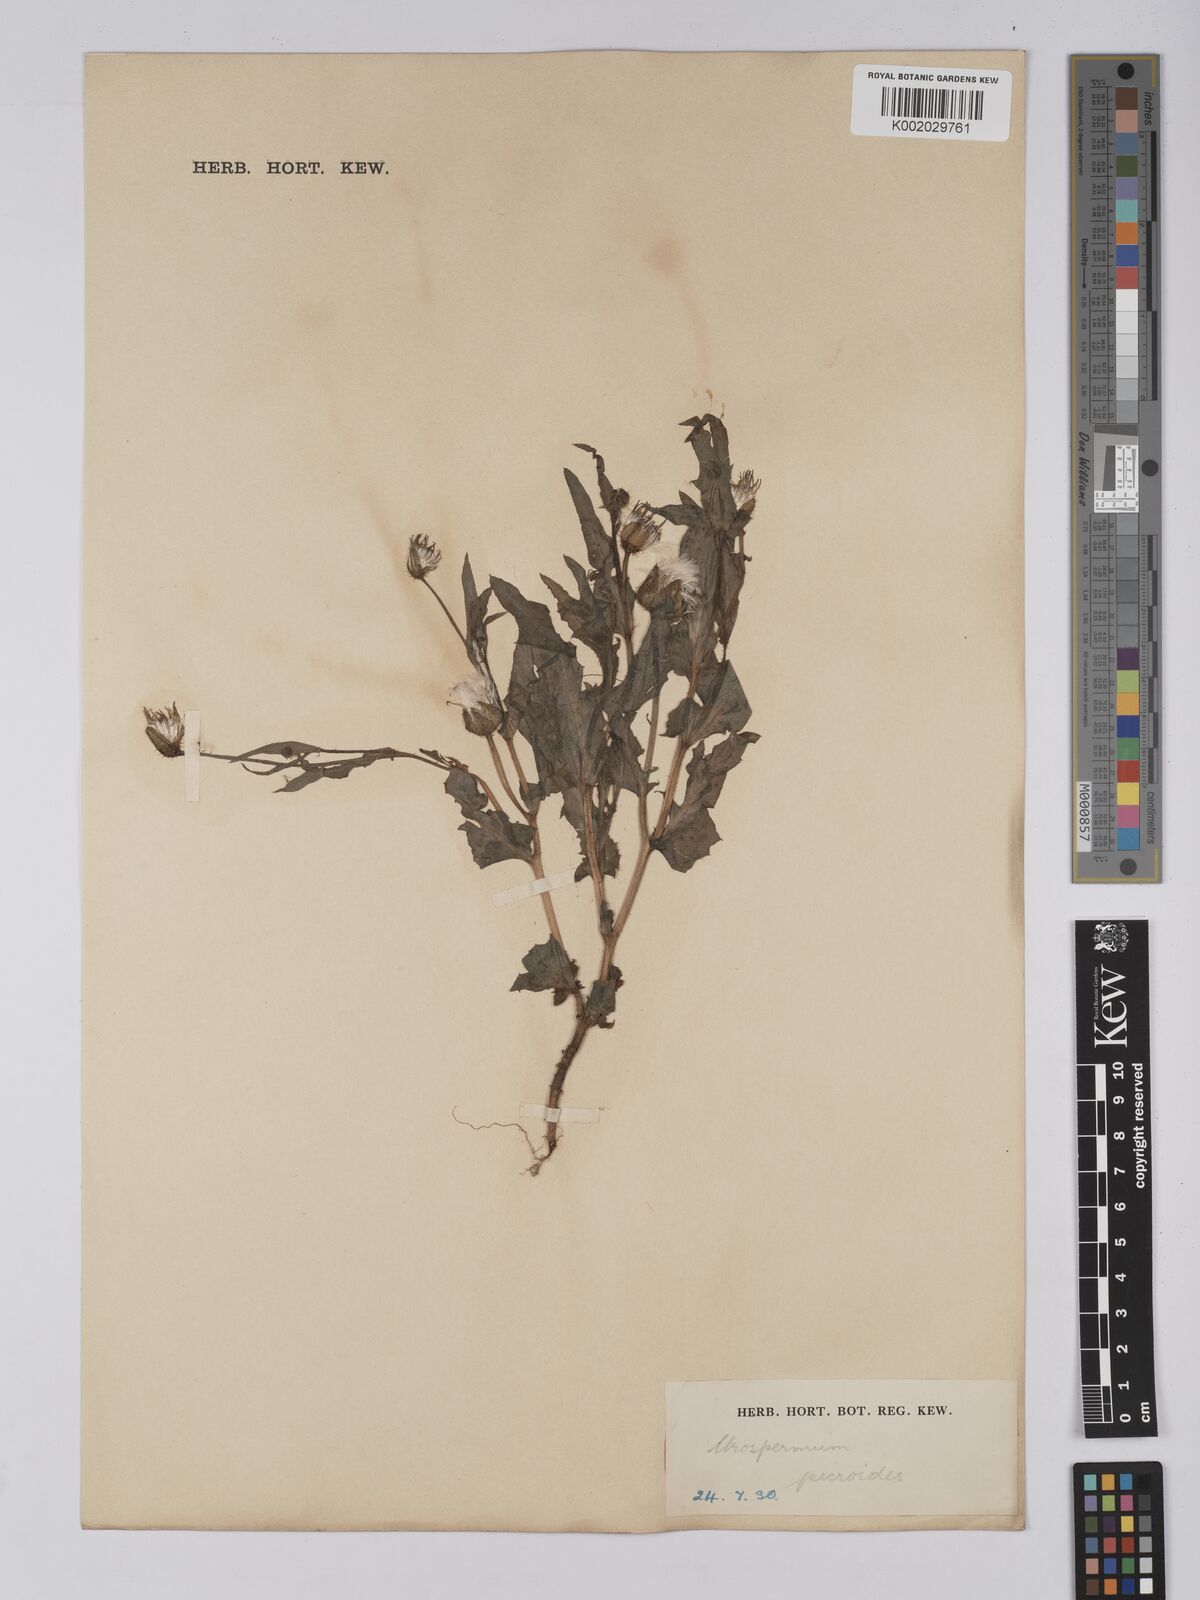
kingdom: Plantae
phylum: Tracheophyta
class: Magnoliopsida
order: Asterales
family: Asteraceae
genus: Urospermum
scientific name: Urospermum picroides
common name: False hawkbit
